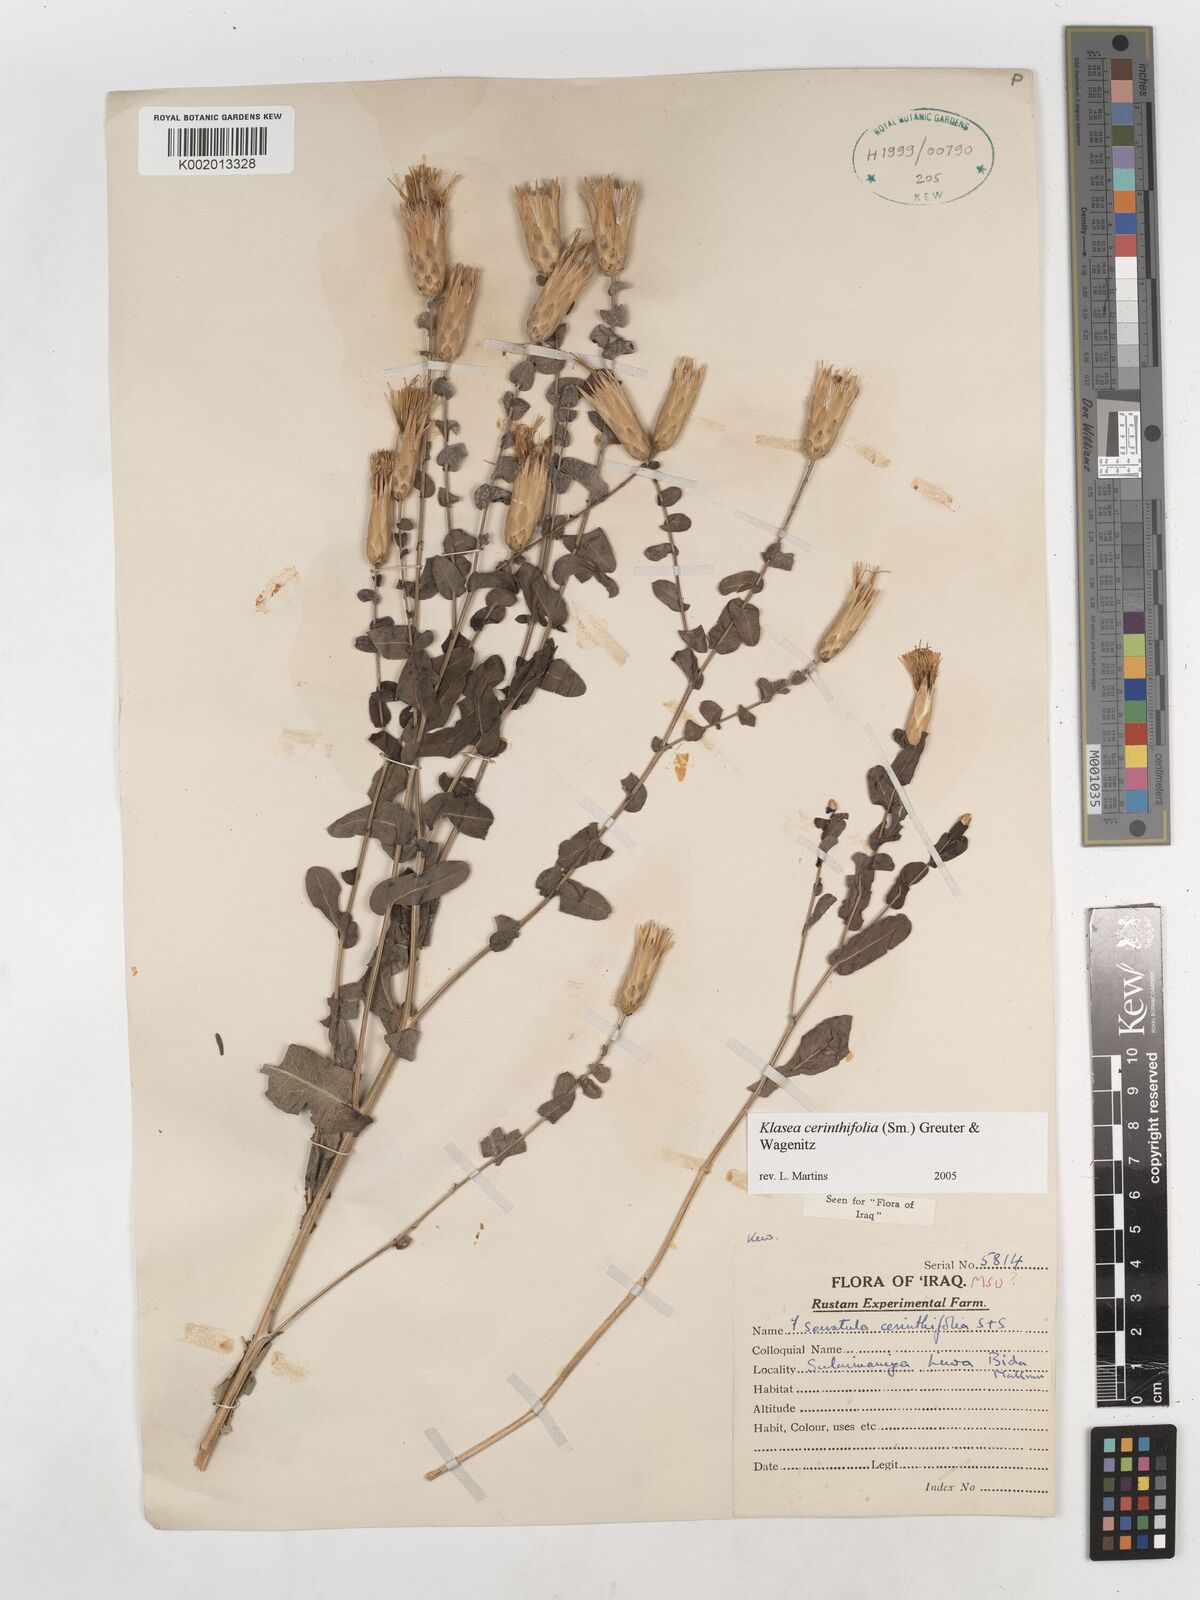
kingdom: Plantae
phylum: Tracheophyta
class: Magnoliopsida
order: Asterales
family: Asteraceae
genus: Klasea
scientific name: Klasea cerinthifolia
